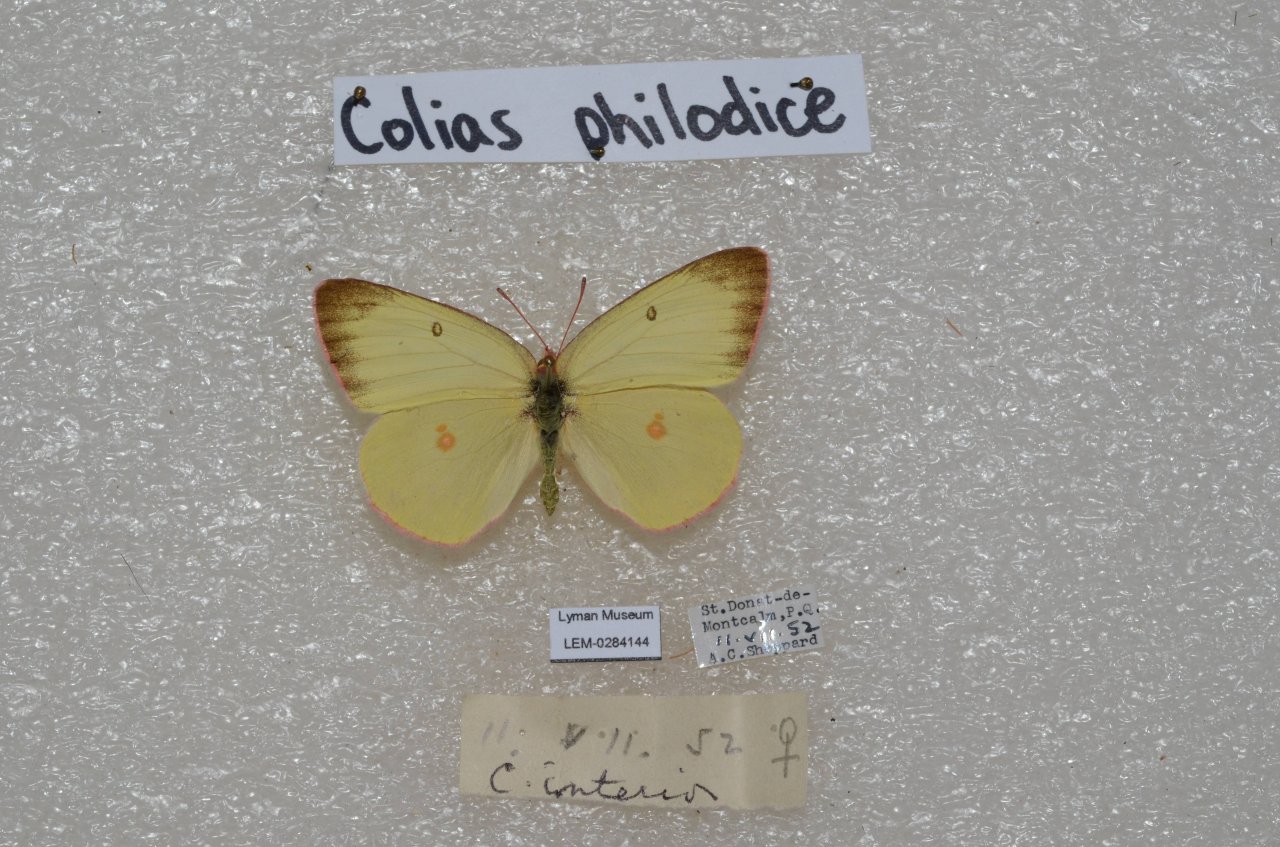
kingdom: Animalia
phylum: Arthropoda
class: Insecta
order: Lepidoptera
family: Pieridae
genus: Colias
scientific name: Colias interior
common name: Pink-edged Sulphur
